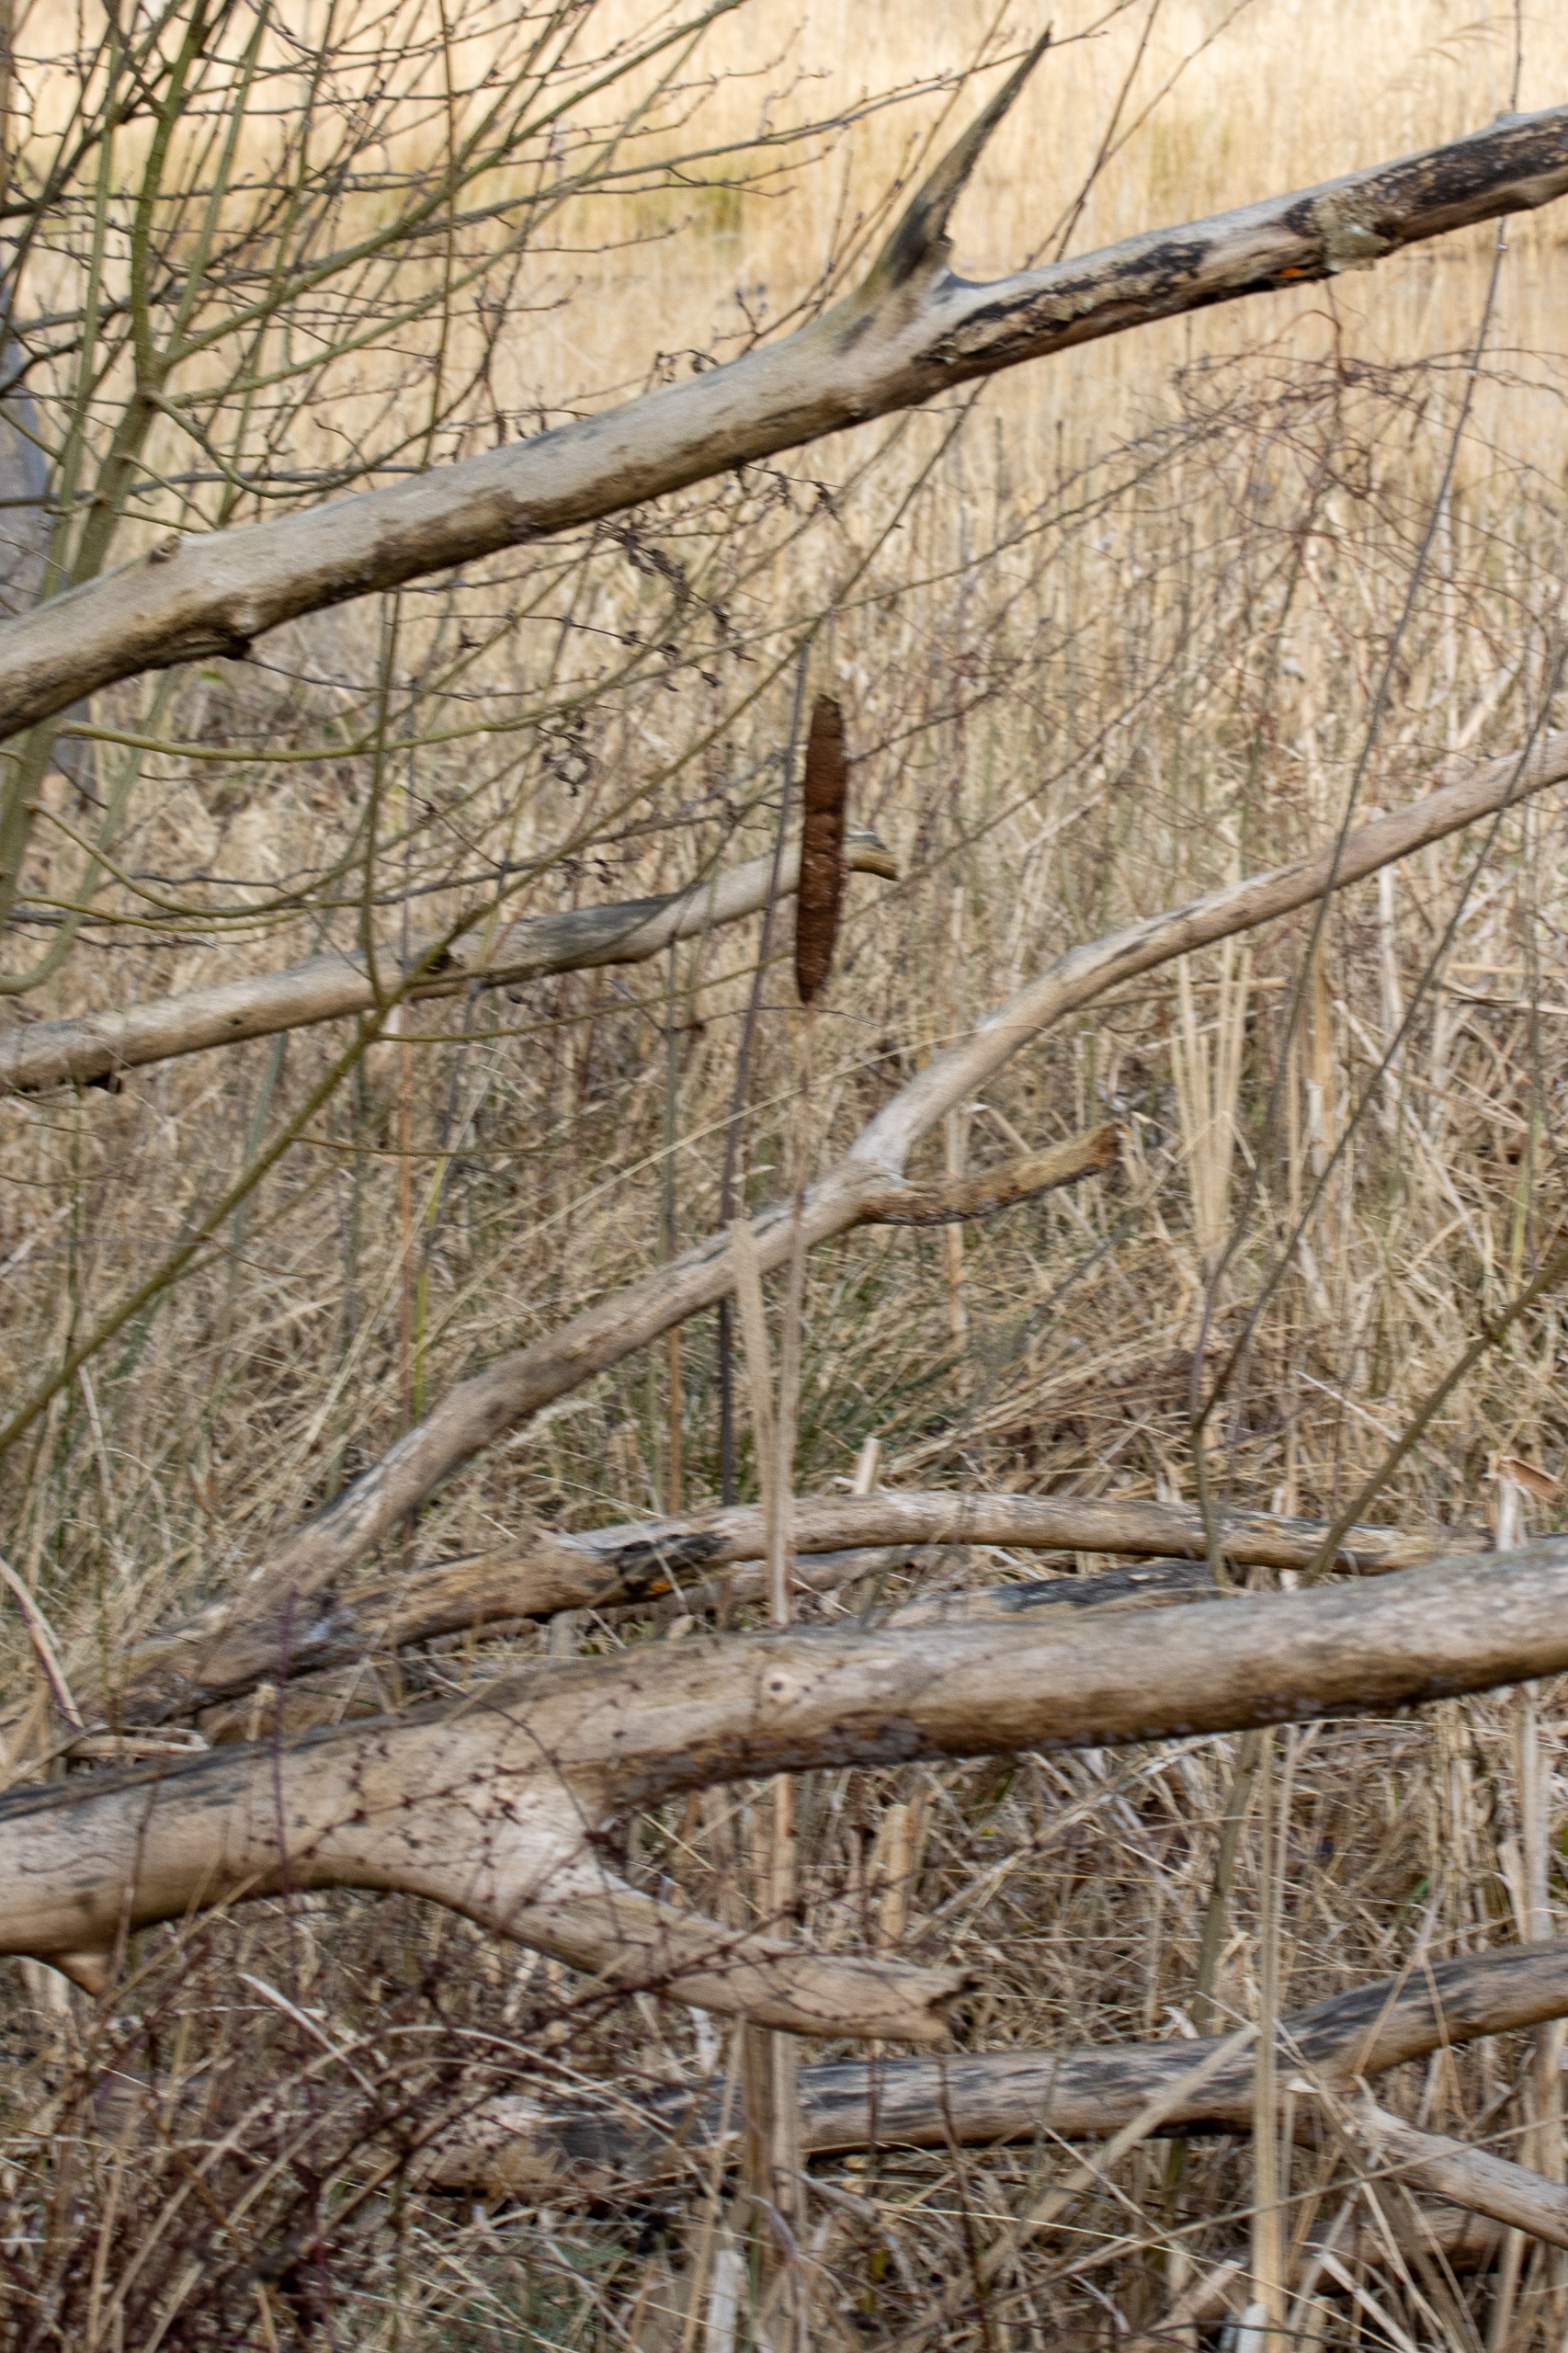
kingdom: Plantae
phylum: Tracheophyta
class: Liliopsida
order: Poales
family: Typhaceae
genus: Typha
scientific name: Typha latifolia
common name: Bredbladet dunhammer
